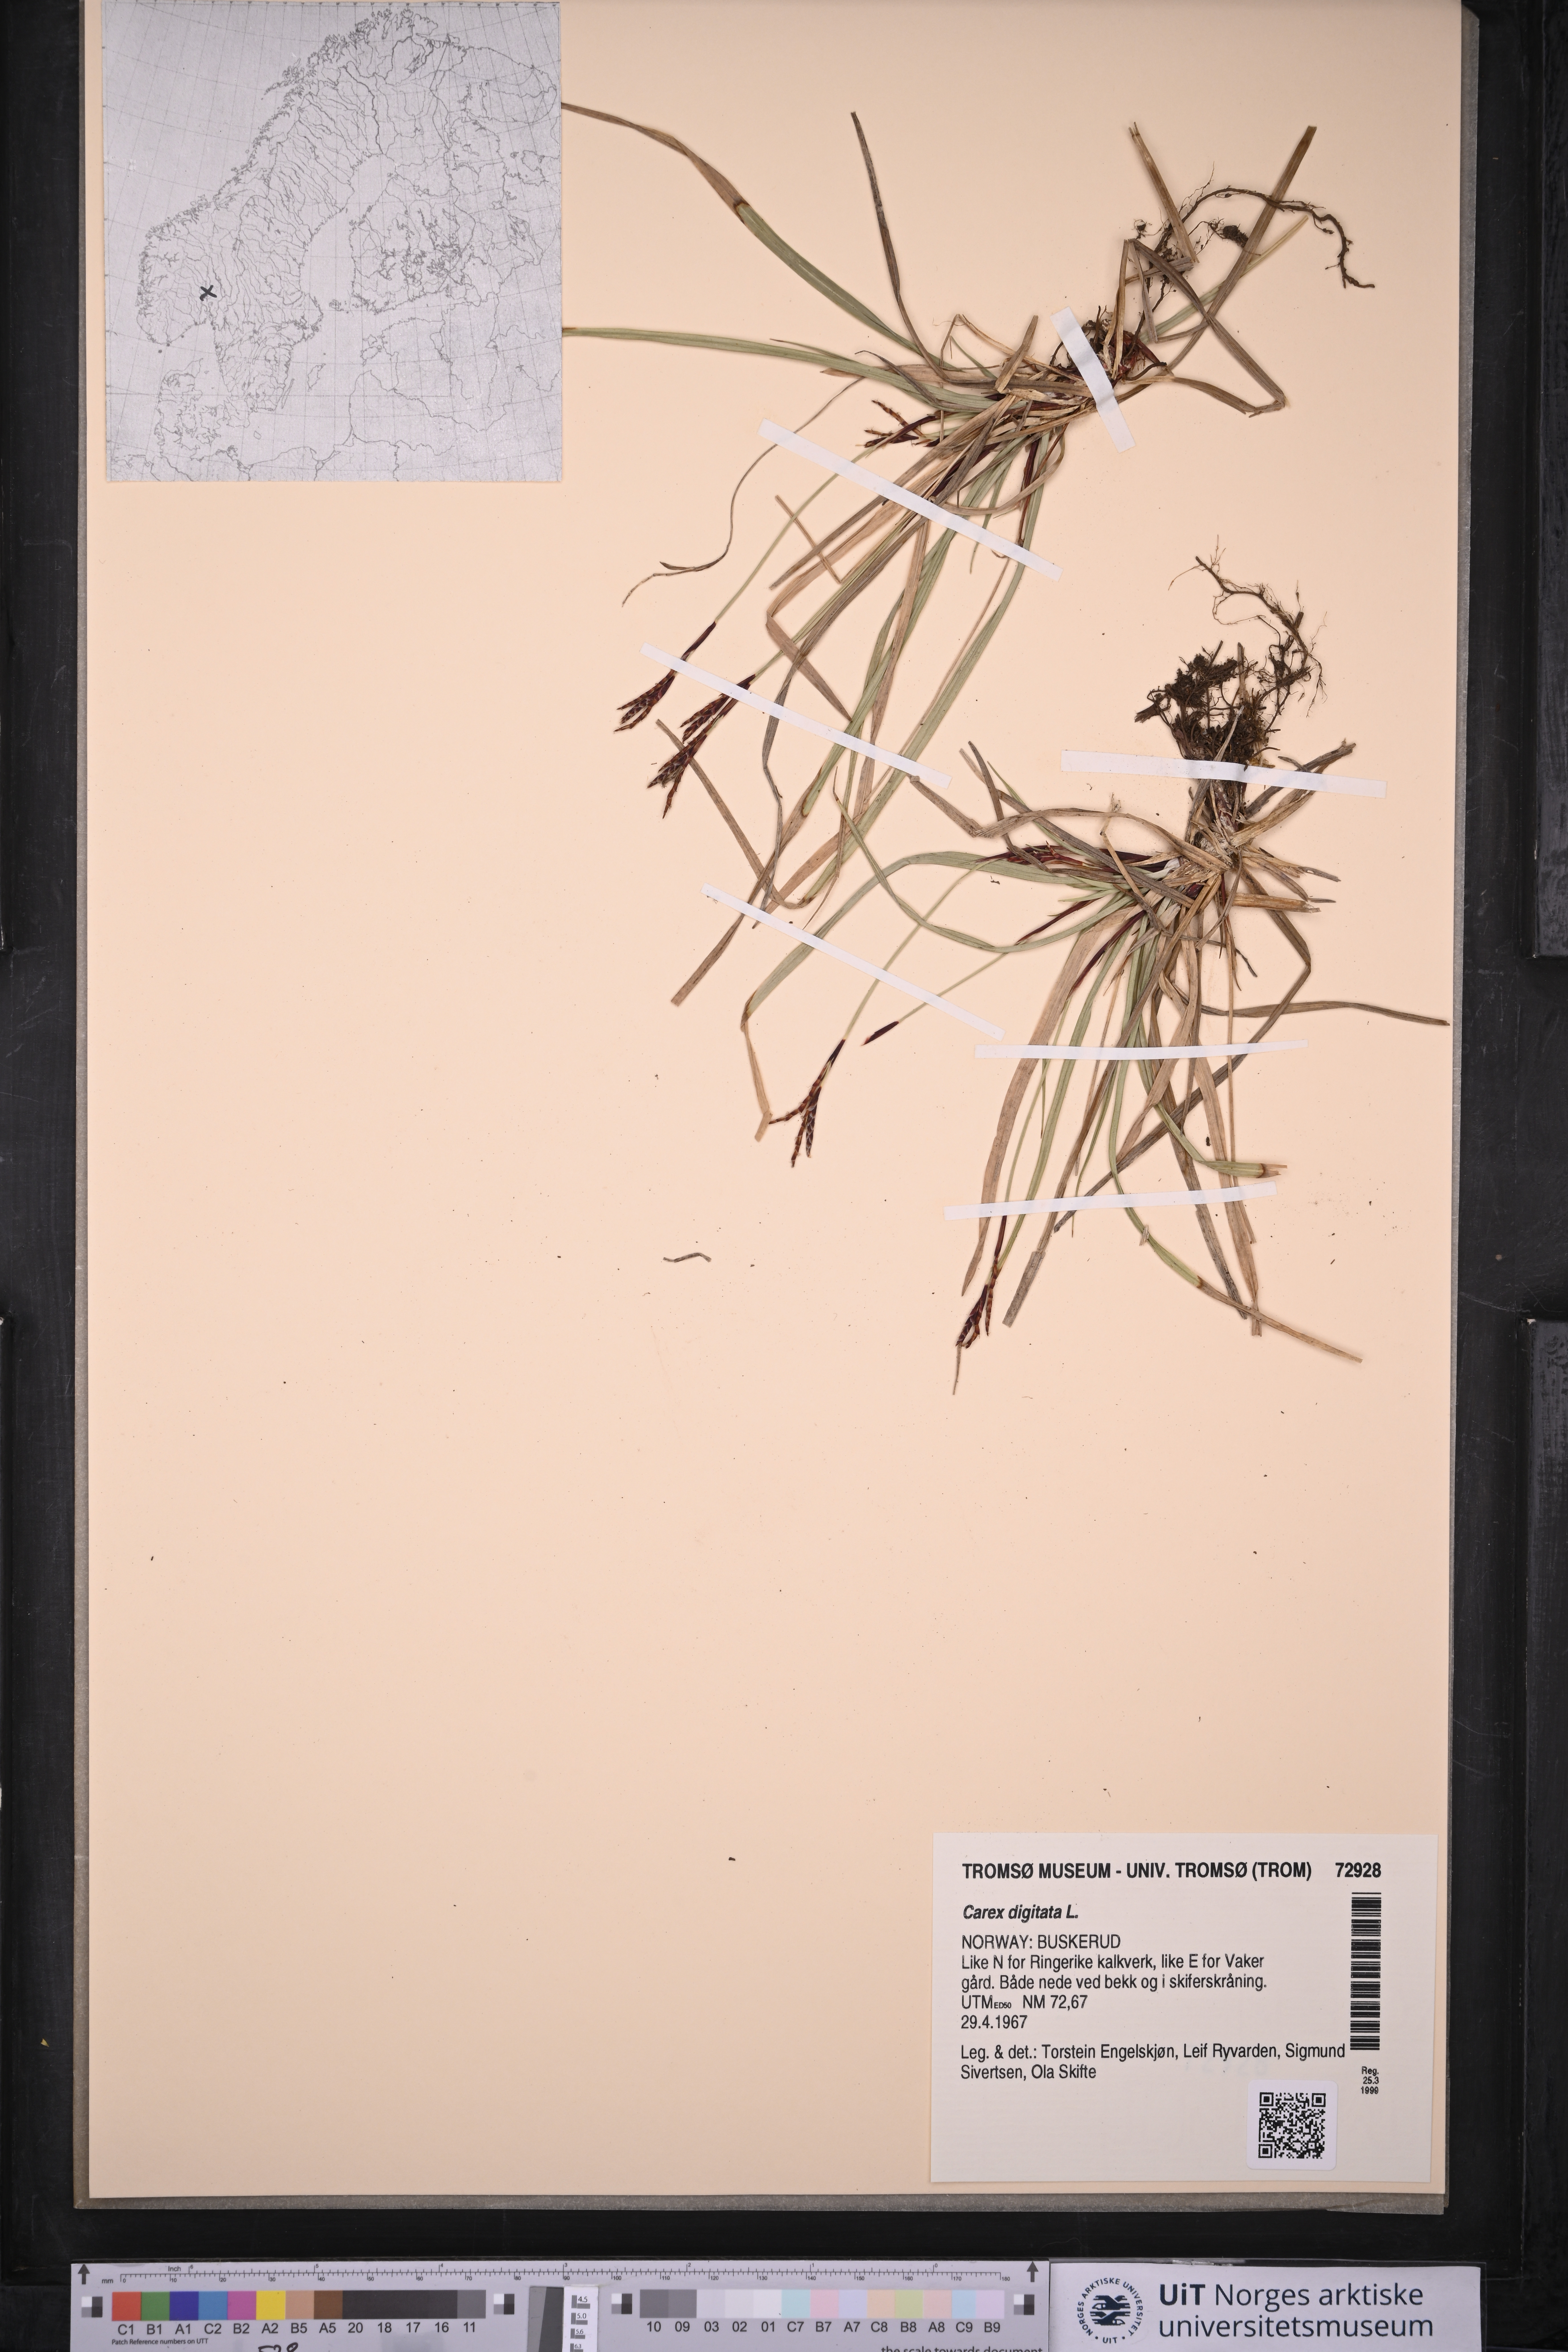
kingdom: Plantae
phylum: Tracheophyta
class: Liliopsida
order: Poales
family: Cyperaceae
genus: Carex
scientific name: Carex digitata
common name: Fingered sedge
